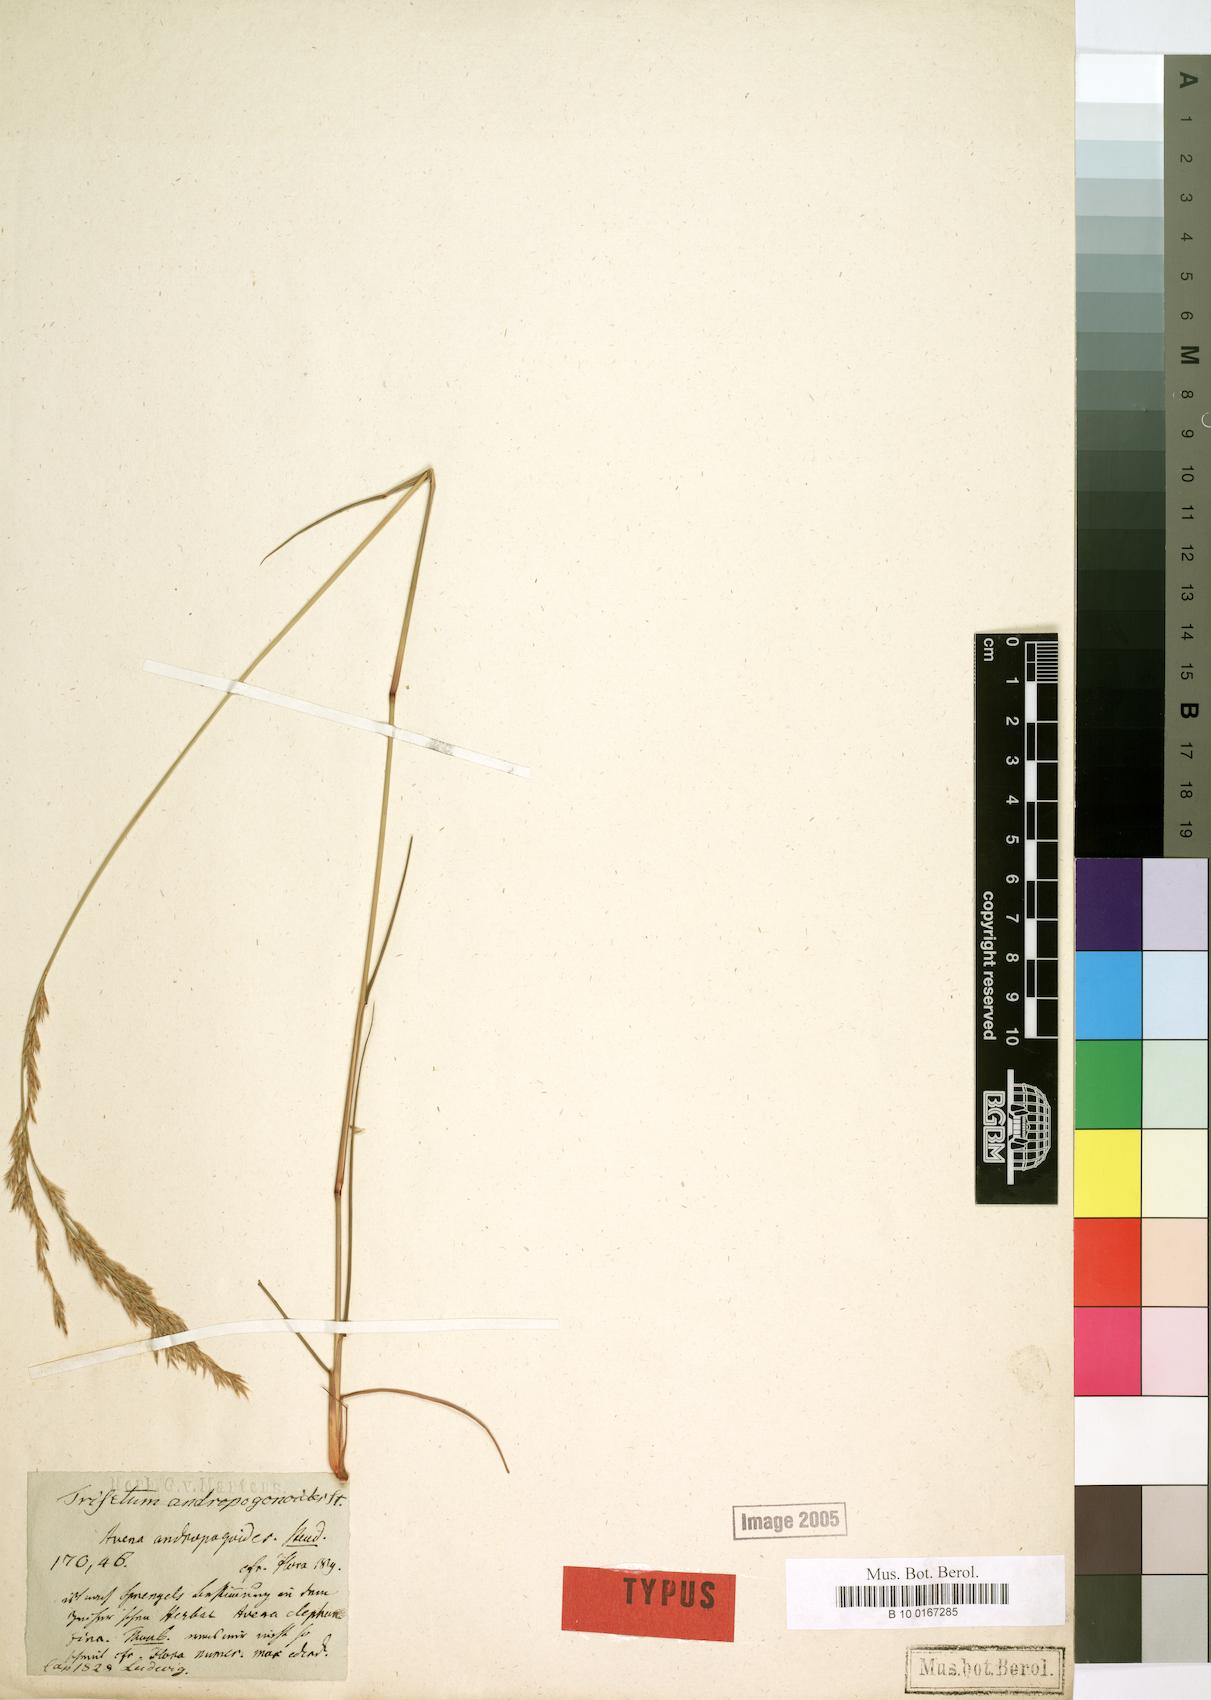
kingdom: Plantae
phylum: Tracheophyta
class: Liliopsida
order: Poales
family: Poaceae
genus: Avena
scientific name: Avena andropogoides
